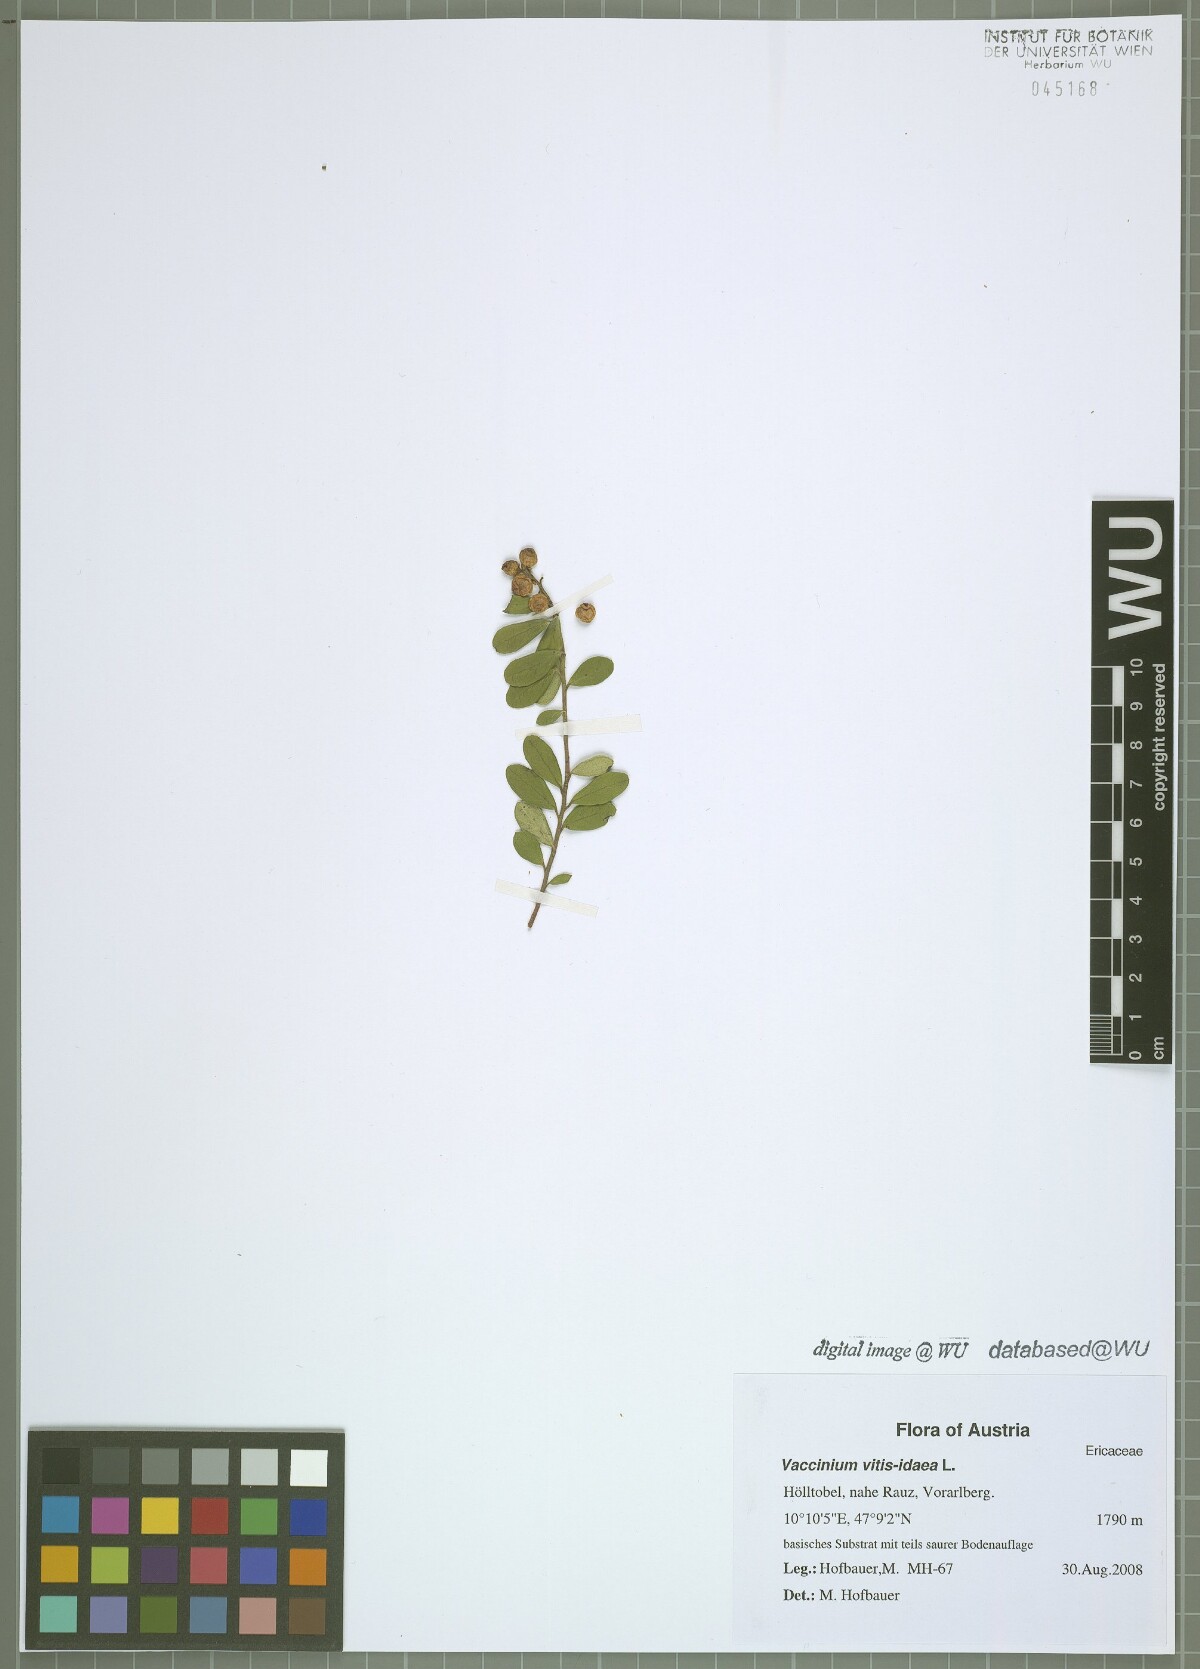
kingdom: Plantae
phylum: Tracheophyta
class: Magnoliopsida
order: Ericales
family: Ericaceae
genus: Vaccinium
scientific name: Vaccinium vitis-idaea
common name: Cowberry
